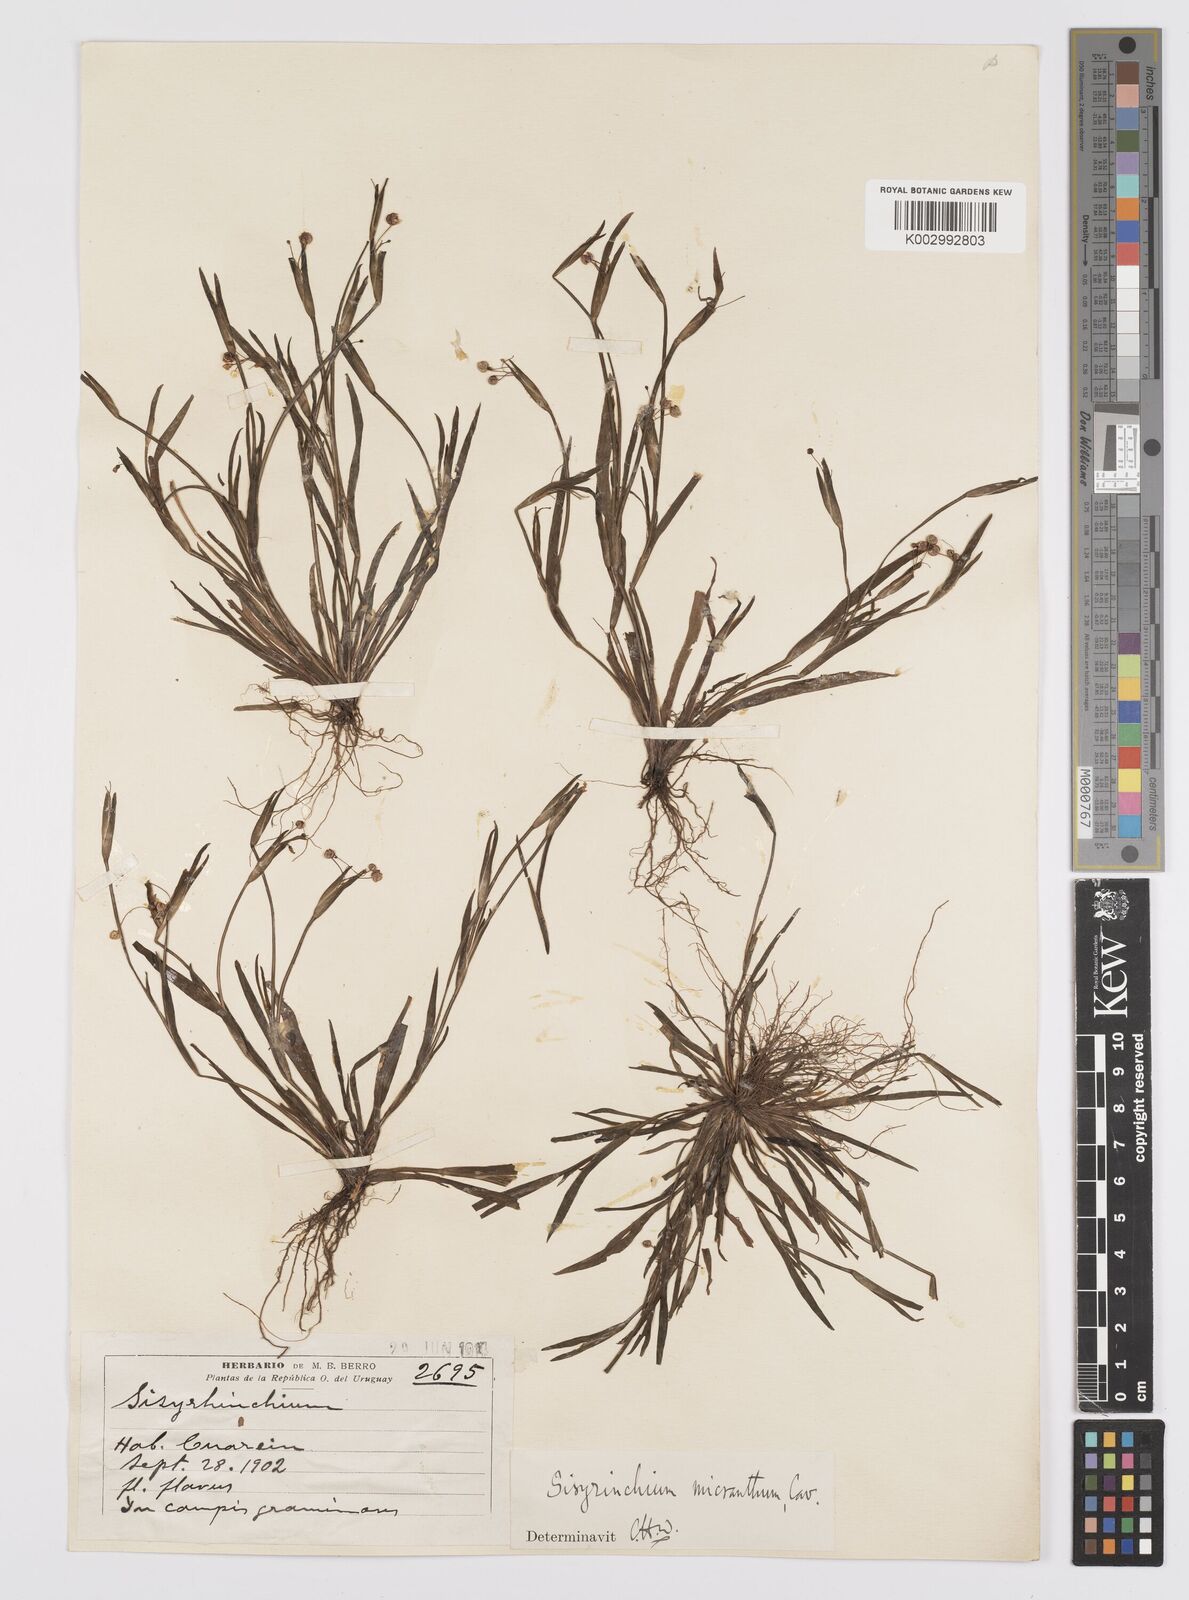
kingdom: Plantae
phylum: Tracheophyta
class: Liliopsida
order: Asparagales
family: Iridaceae
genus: Sisyrinchium
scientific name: Sisyrinchium micranthum
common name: Bermuda pigroot
